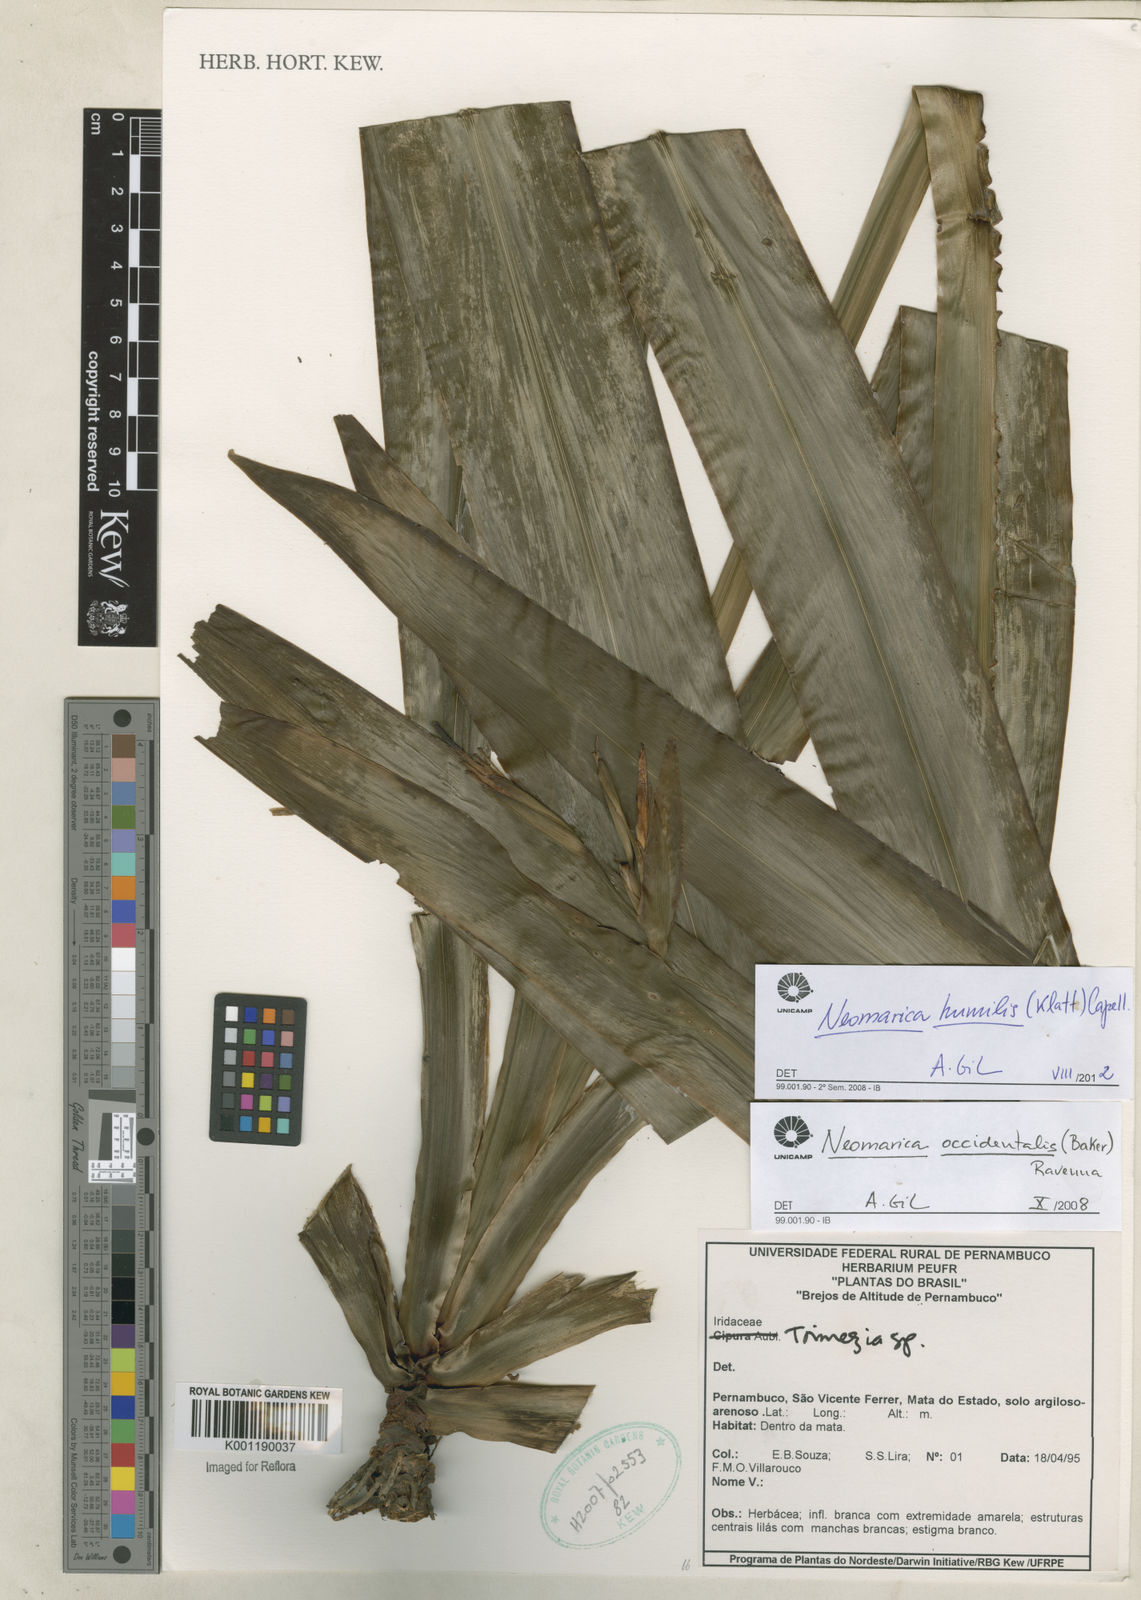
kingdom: Plantae
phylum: Tracheophyta
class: Liliopsida
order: Asparagales
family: Iridaceae
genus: Trimezia
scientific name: Trimezia humilis
